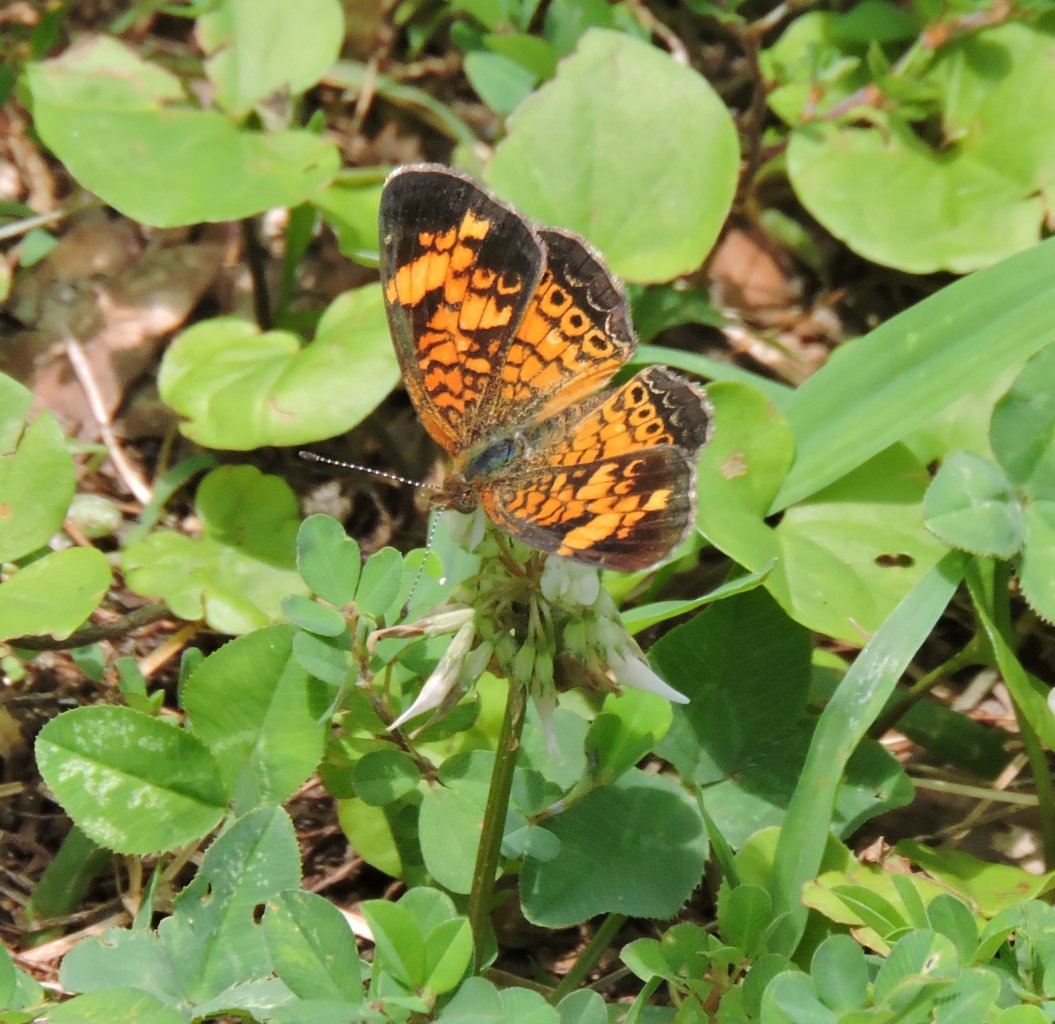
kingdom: Animalia
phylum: Arthropoda
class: Insecta
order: Lepidoptera
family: Nymphalidae
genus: Phyciodes
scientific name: Phyciodes tharos
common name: Pearl Crescent
